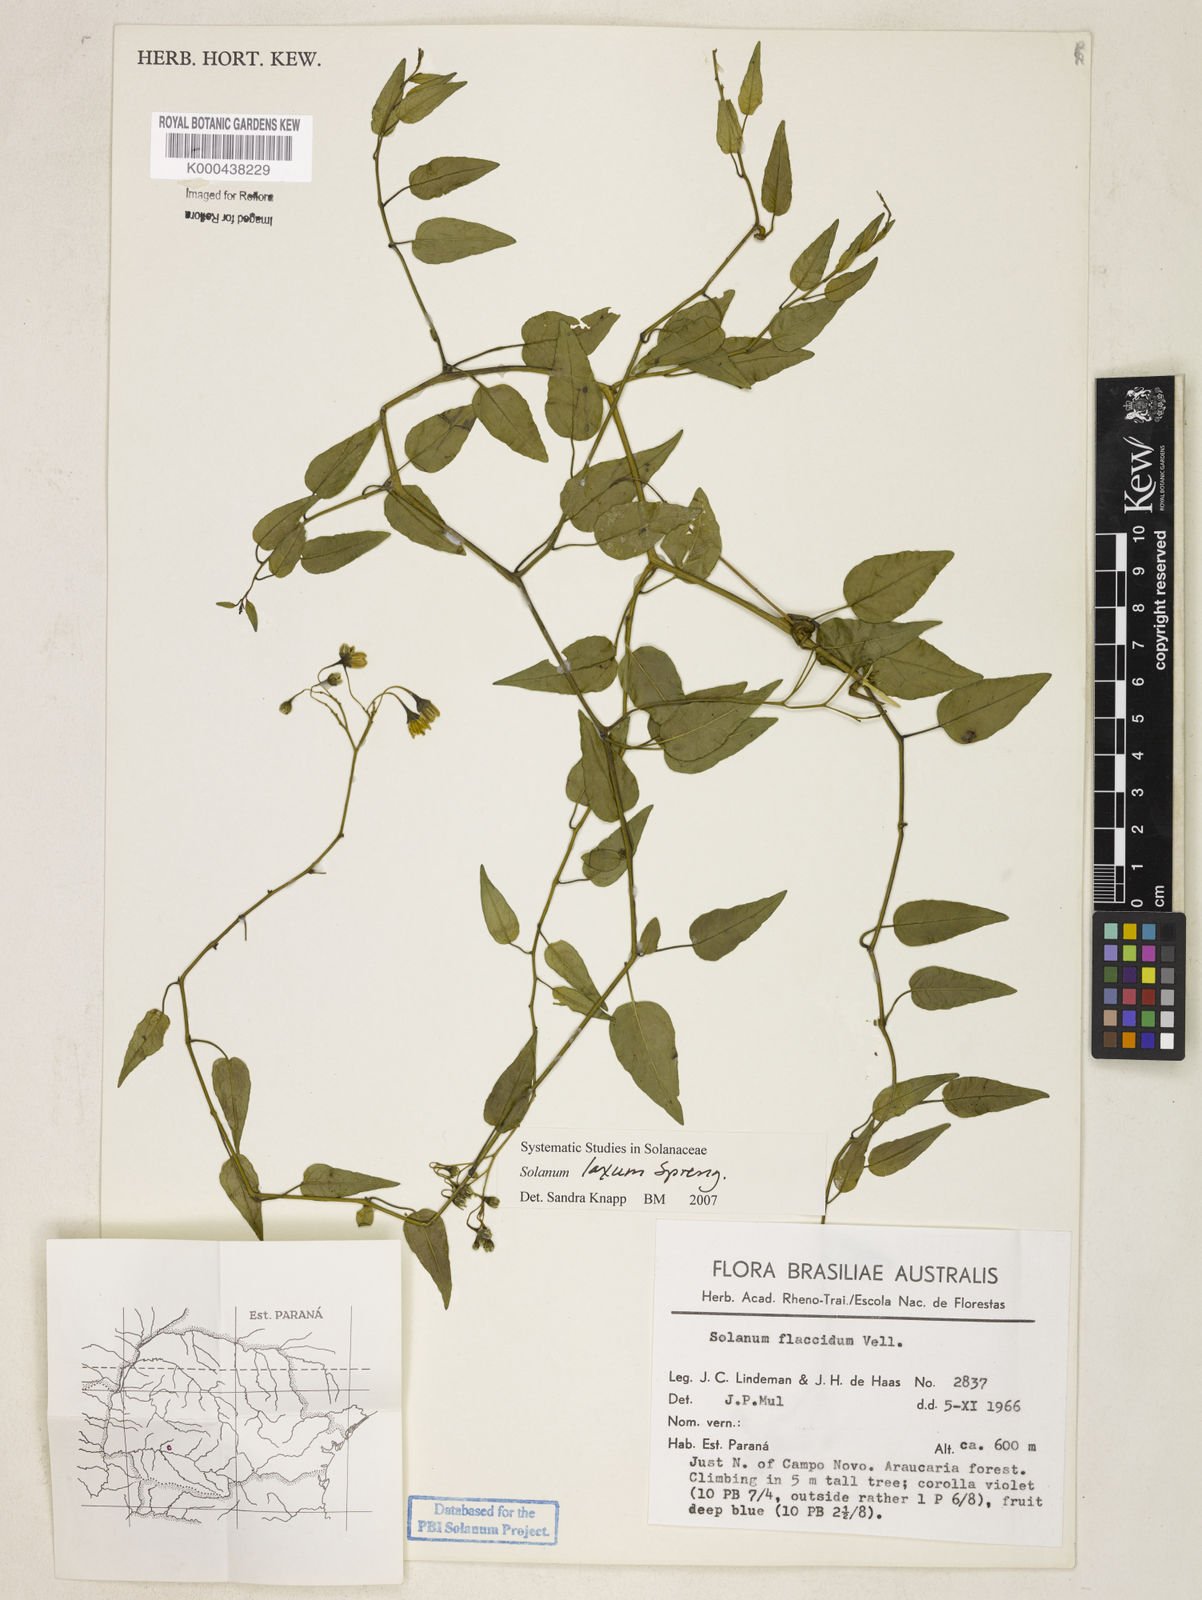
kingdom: Plantae
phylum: Tracheophyta
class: Magnoliopsida
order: Solanales
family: Solanaceae
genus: Solanum
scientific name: Solanum laxum
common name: Nightshade
